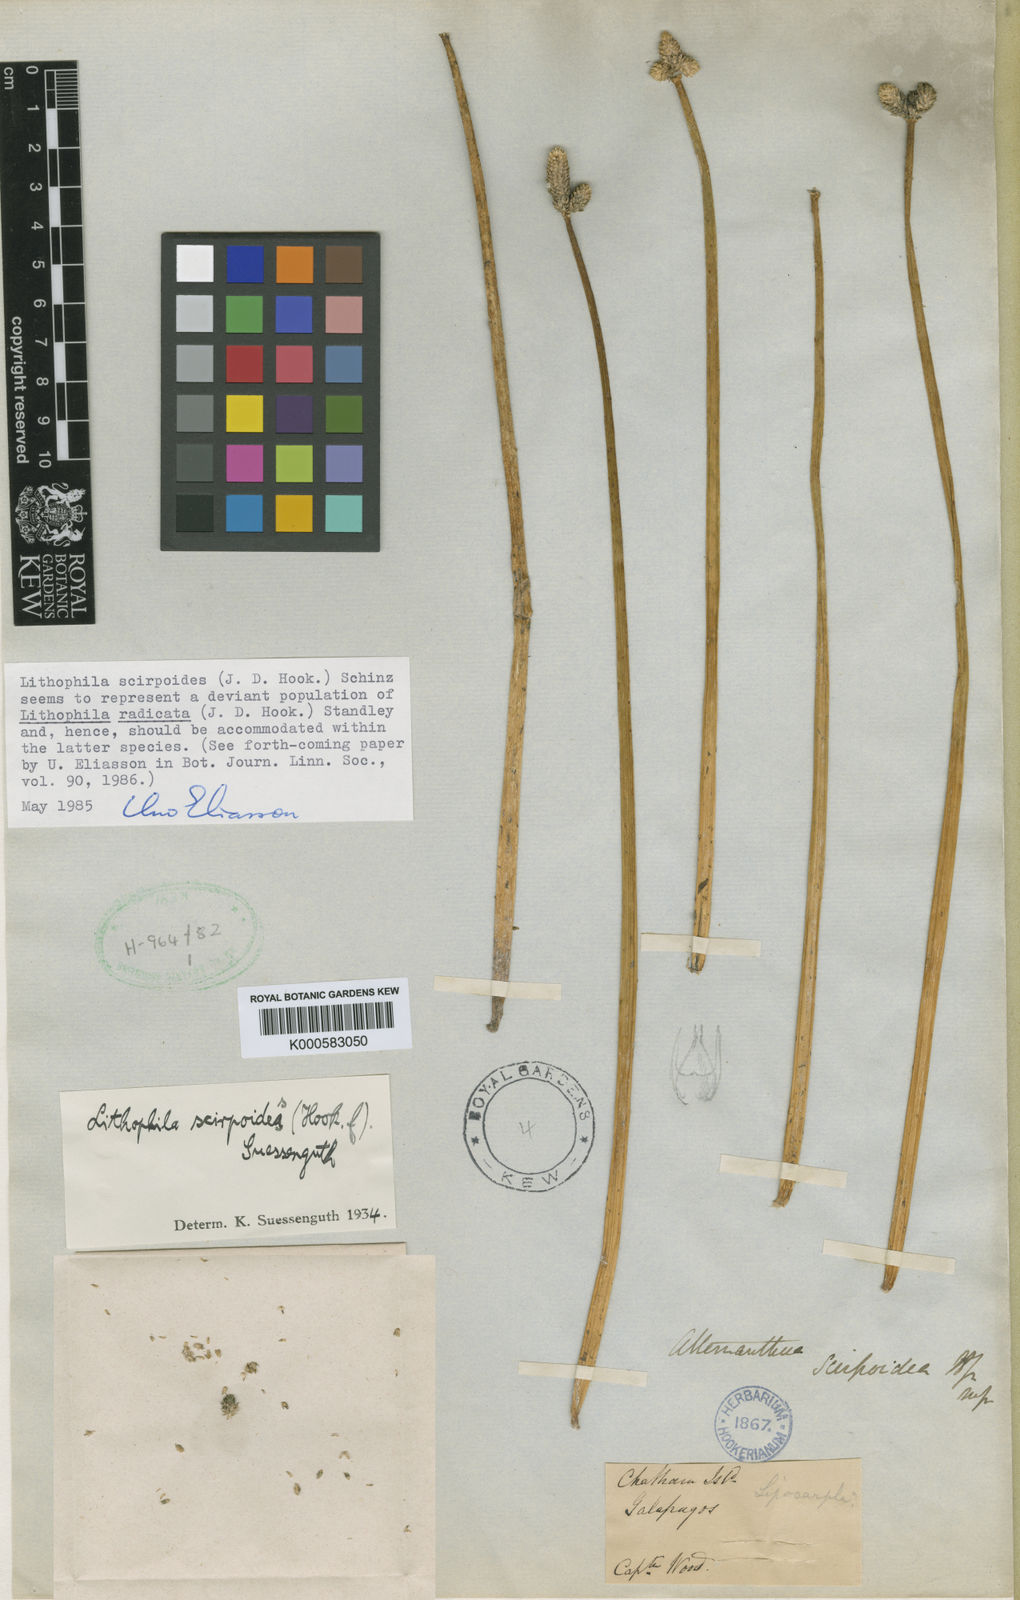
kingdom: Plantae
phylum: Tracheophyta
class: Magnoliopsida
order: Caryophyllales
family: Amaranthaceae
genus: Gomphrena
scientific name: Gomphrena radicata
